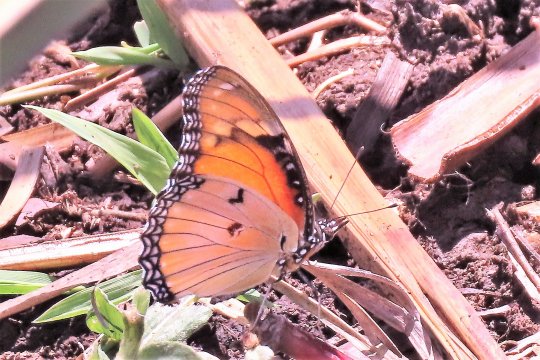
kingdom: Animalia
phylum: Arthropoda
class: Insecta
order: Lepidoptera
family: Nymphalidae
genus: Hypolimnas
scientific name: Hypolimnas misippus
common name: Mimic
